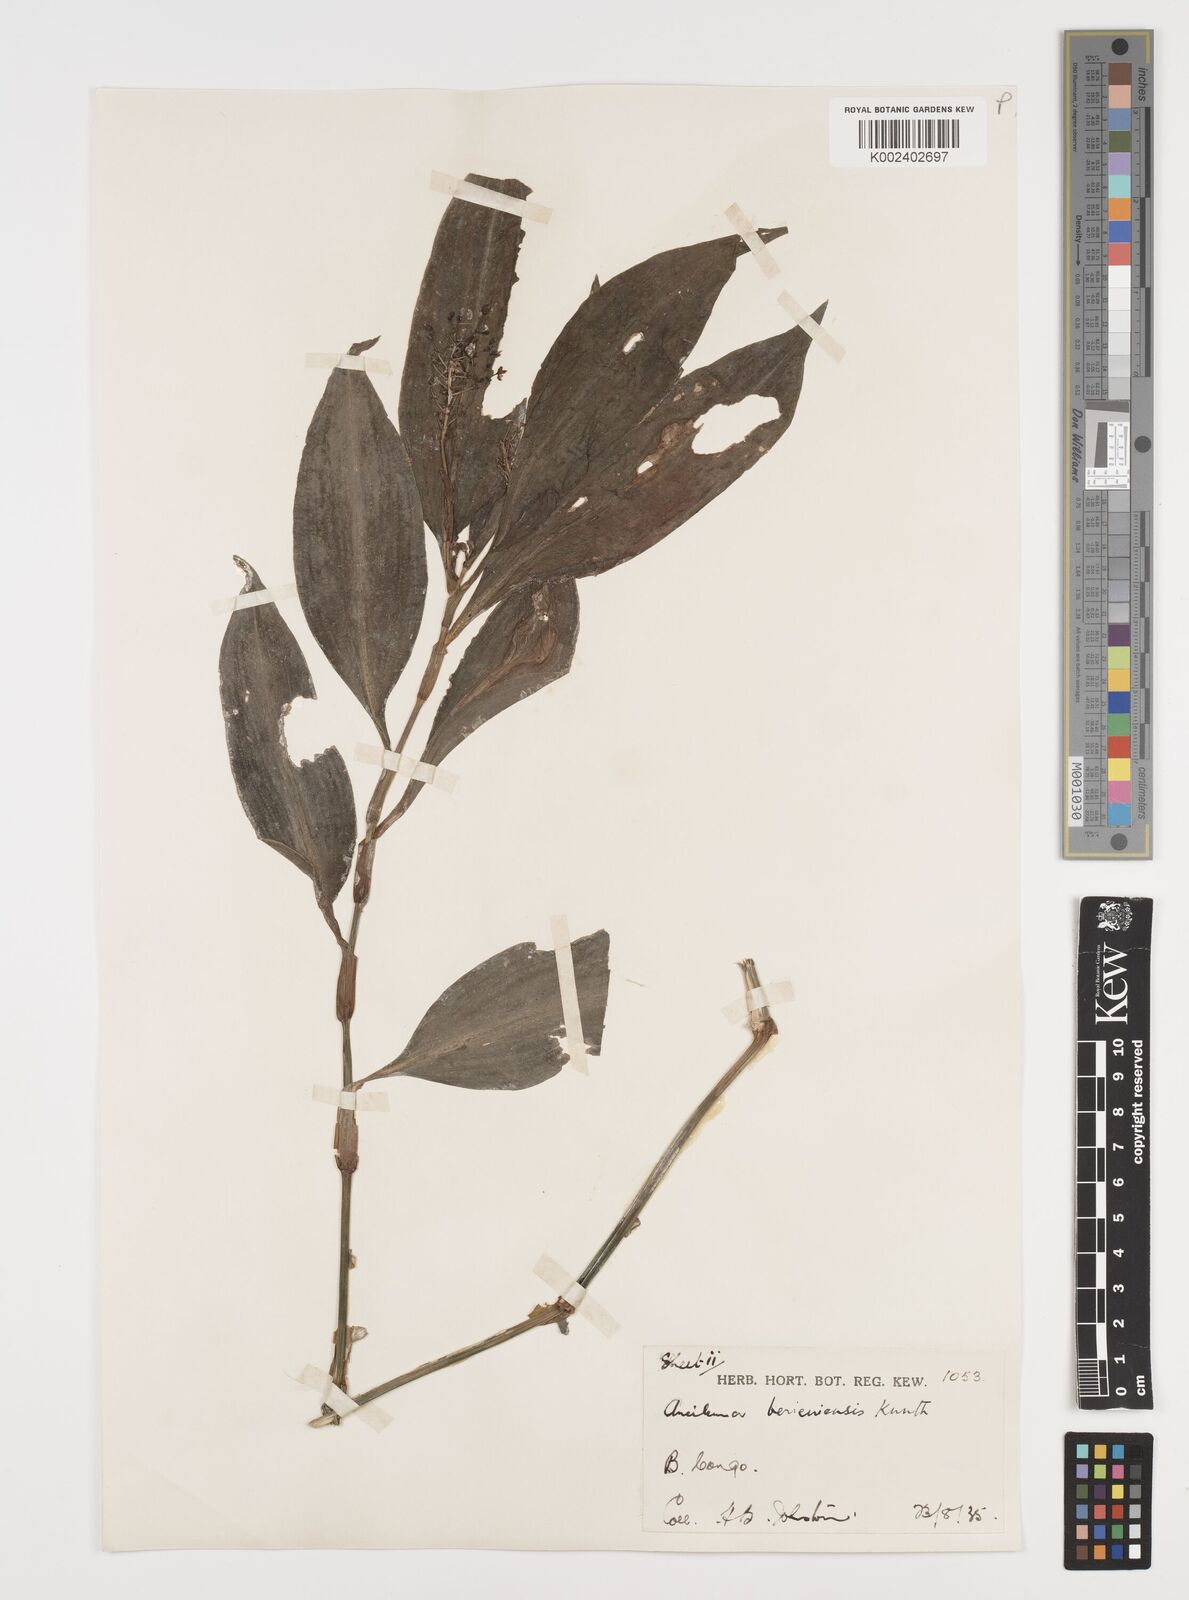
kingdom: Plantae
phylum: Tracheophyta
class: Liliopsida
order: Commelinales
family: Commelinaceae
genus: Aneilema
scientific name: Aneilema beniniense
